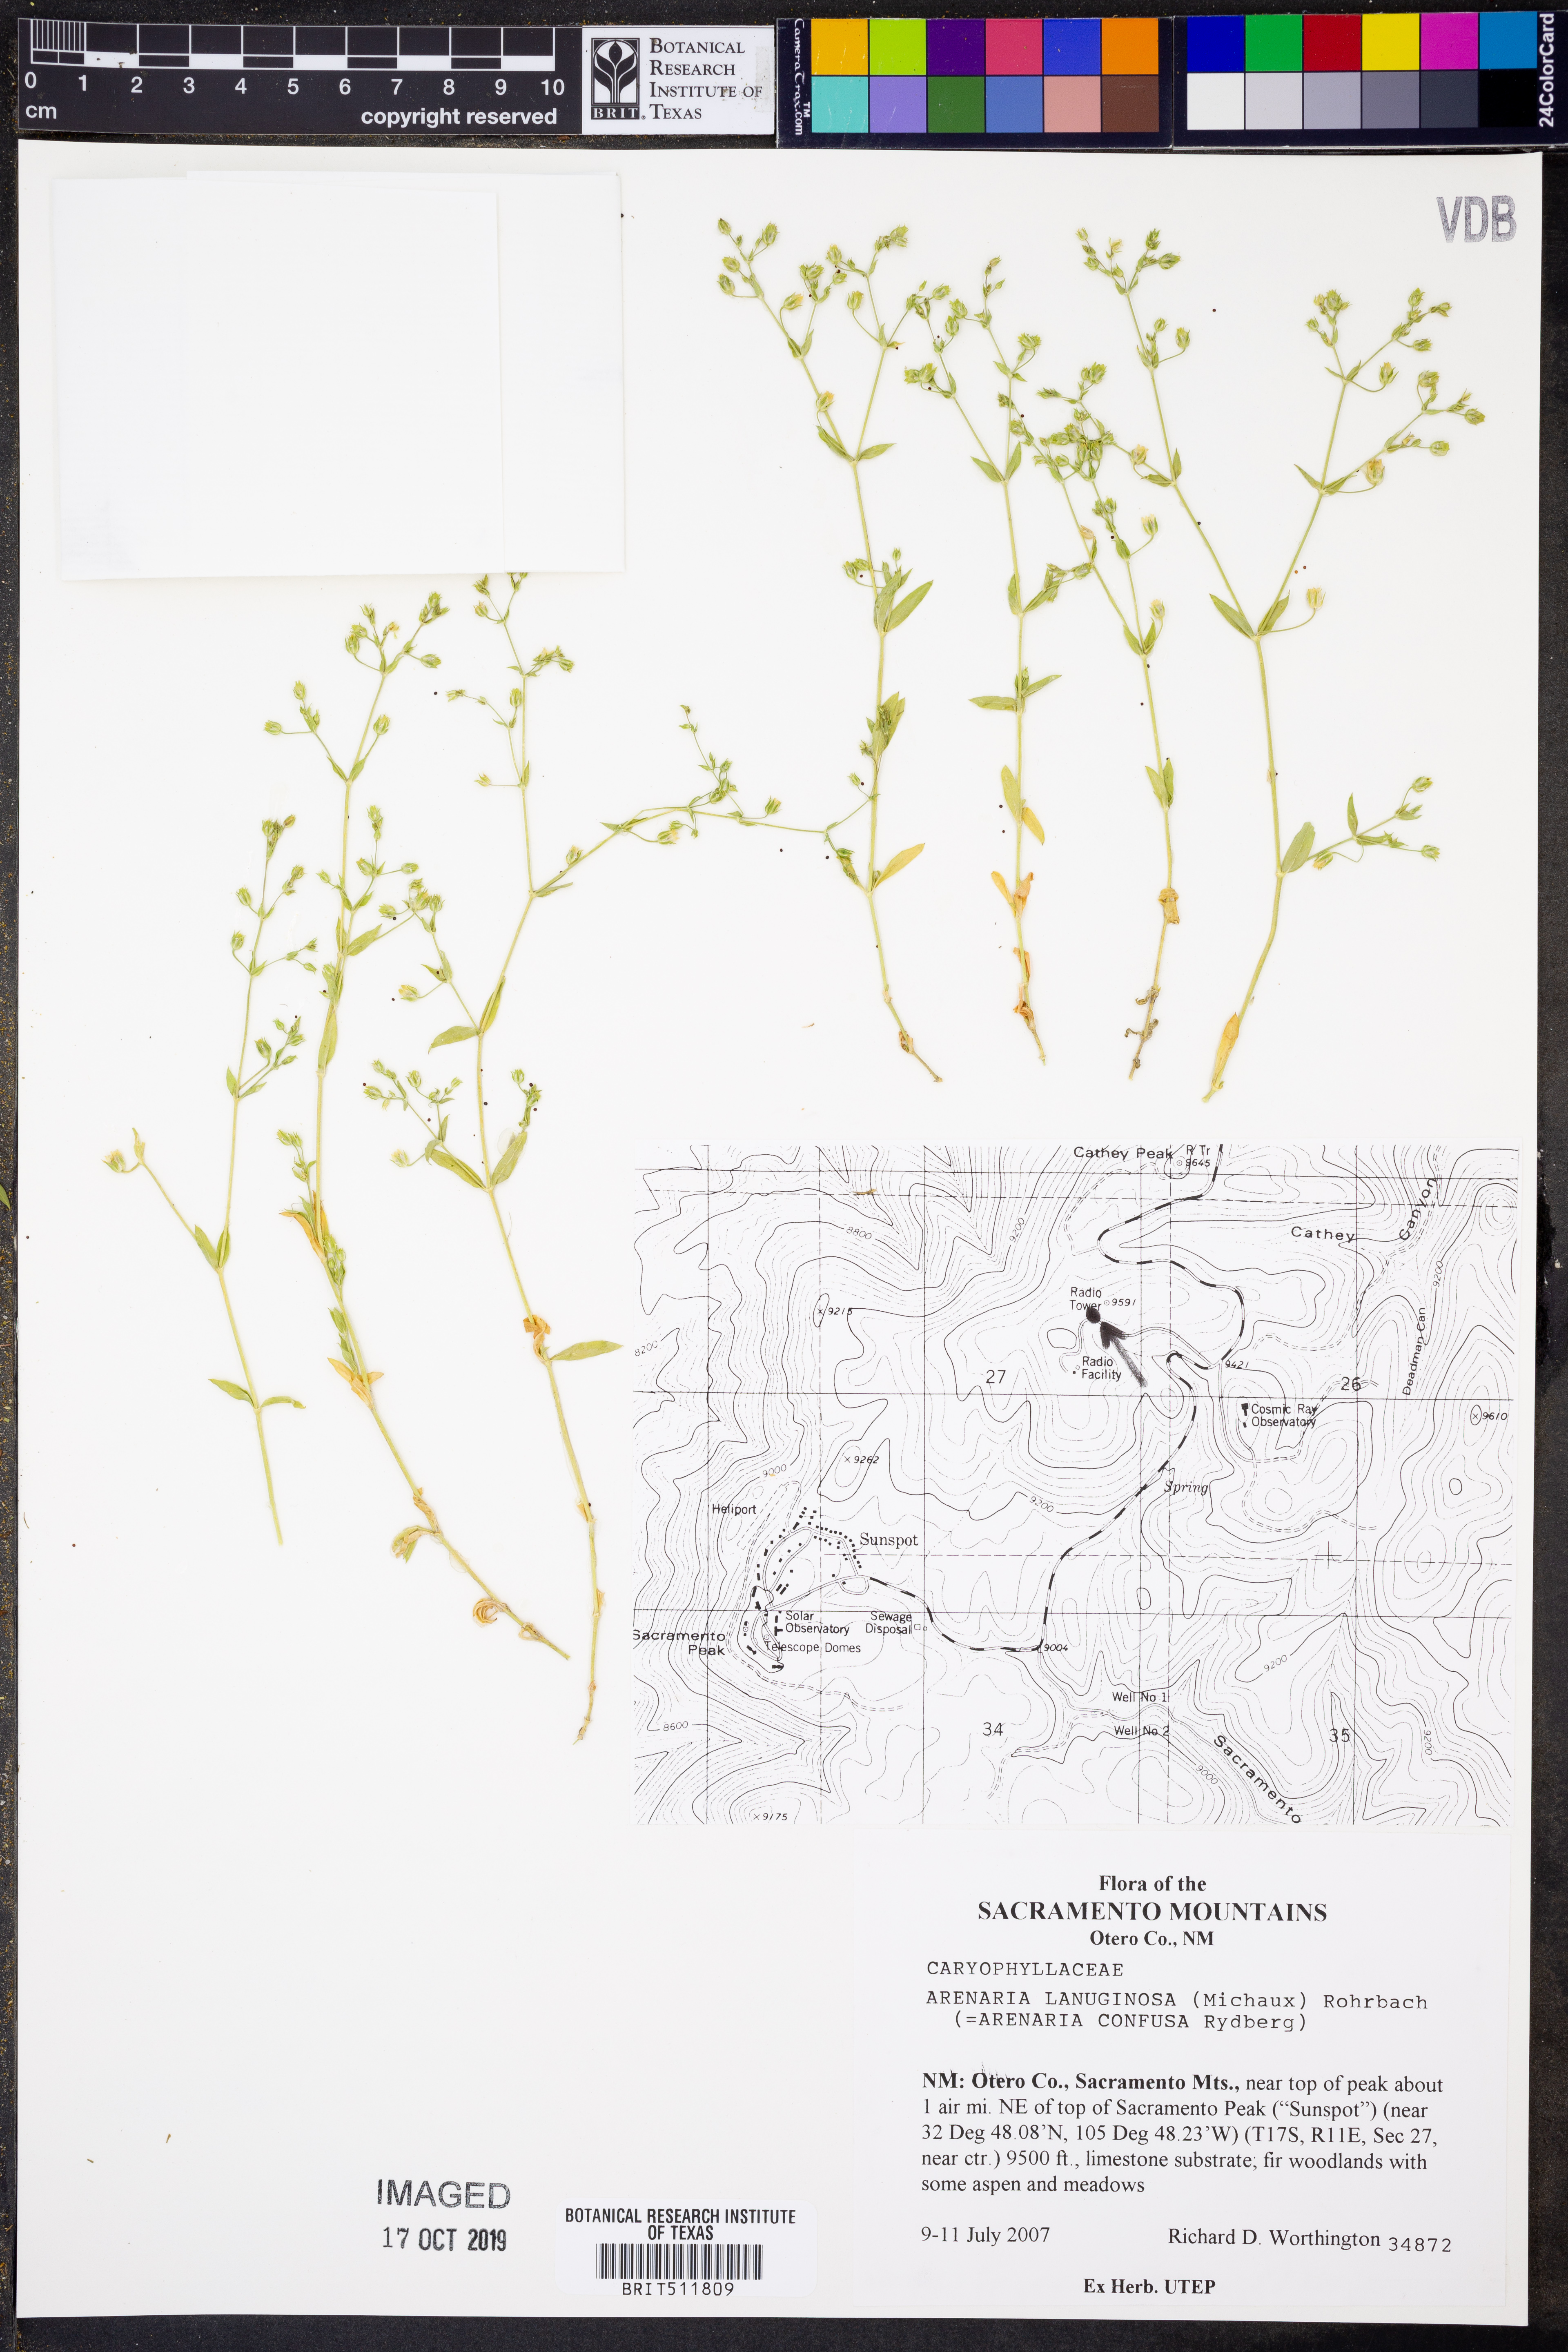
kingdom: Plantae
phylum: Tracheophyta
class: Magnoliopsida
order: Caryophyllales
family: Caryophyllaceae
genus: Arenaria
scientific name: Arenaria lanuginosa
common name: Spread sandwort
